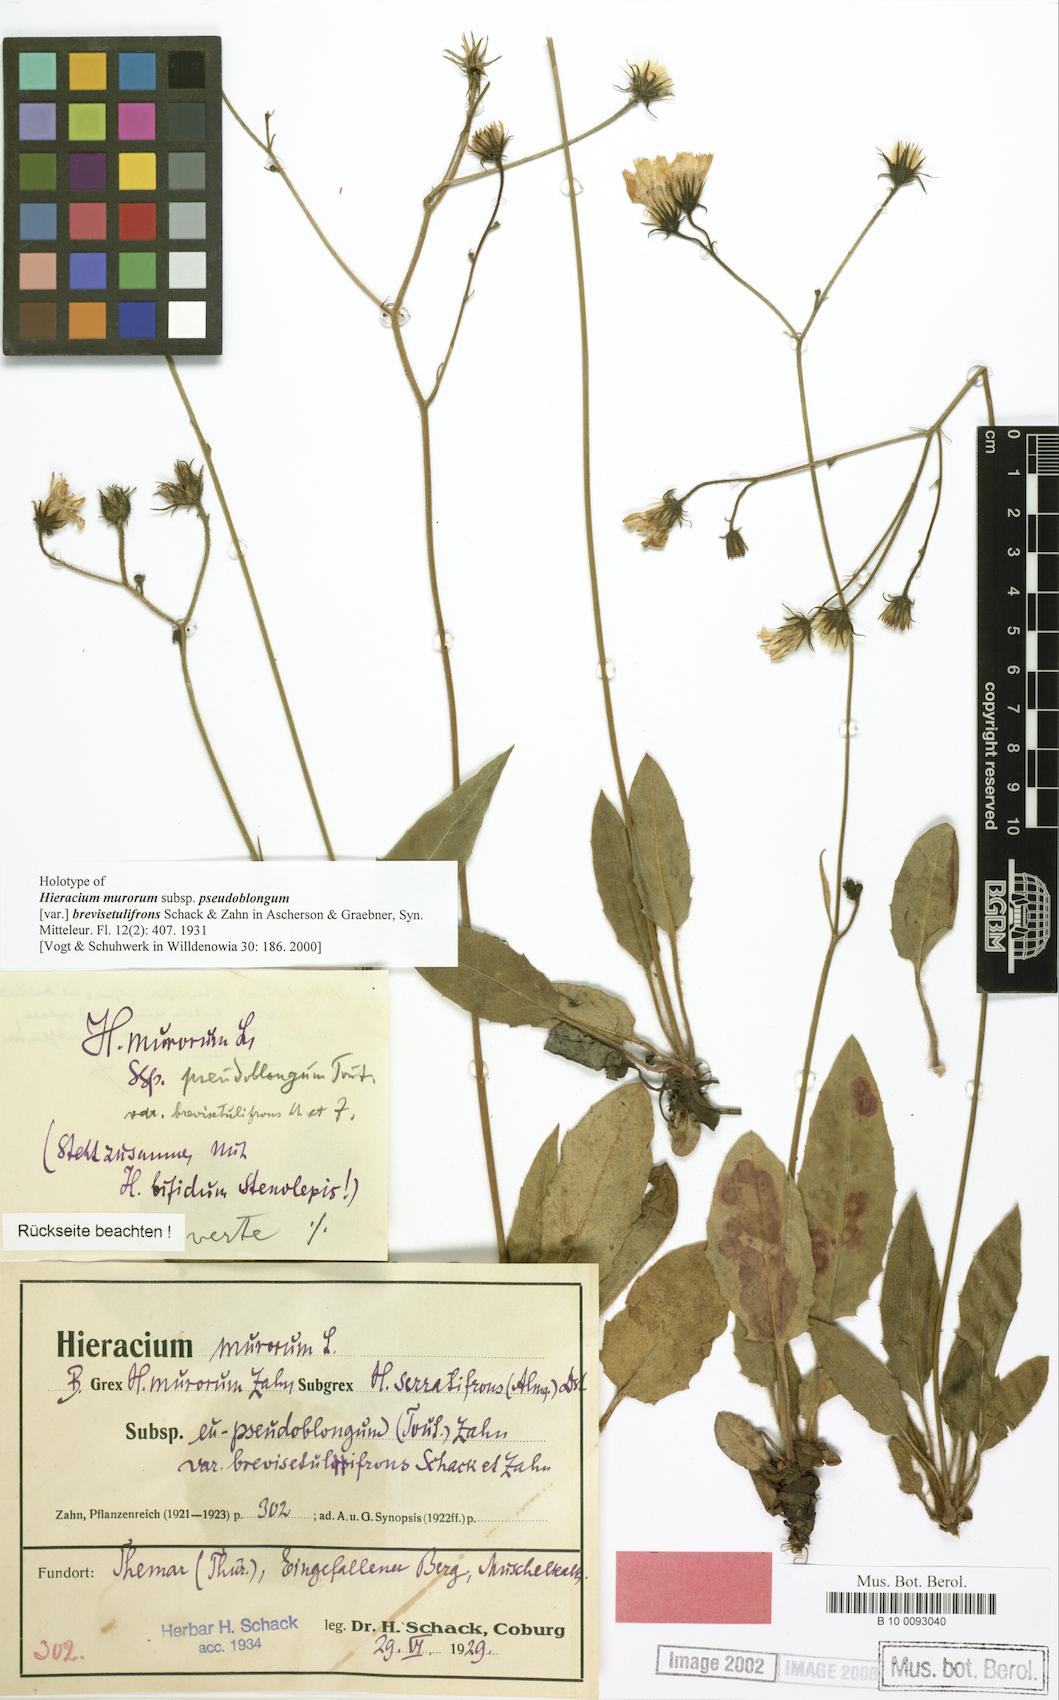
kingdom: Plantae
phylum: Tracheophyta
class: Magnoliopsida
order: Asterales
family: Asteraceae
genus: Hieracium
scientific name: Hieracium murorum
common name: Wall hawkweed
